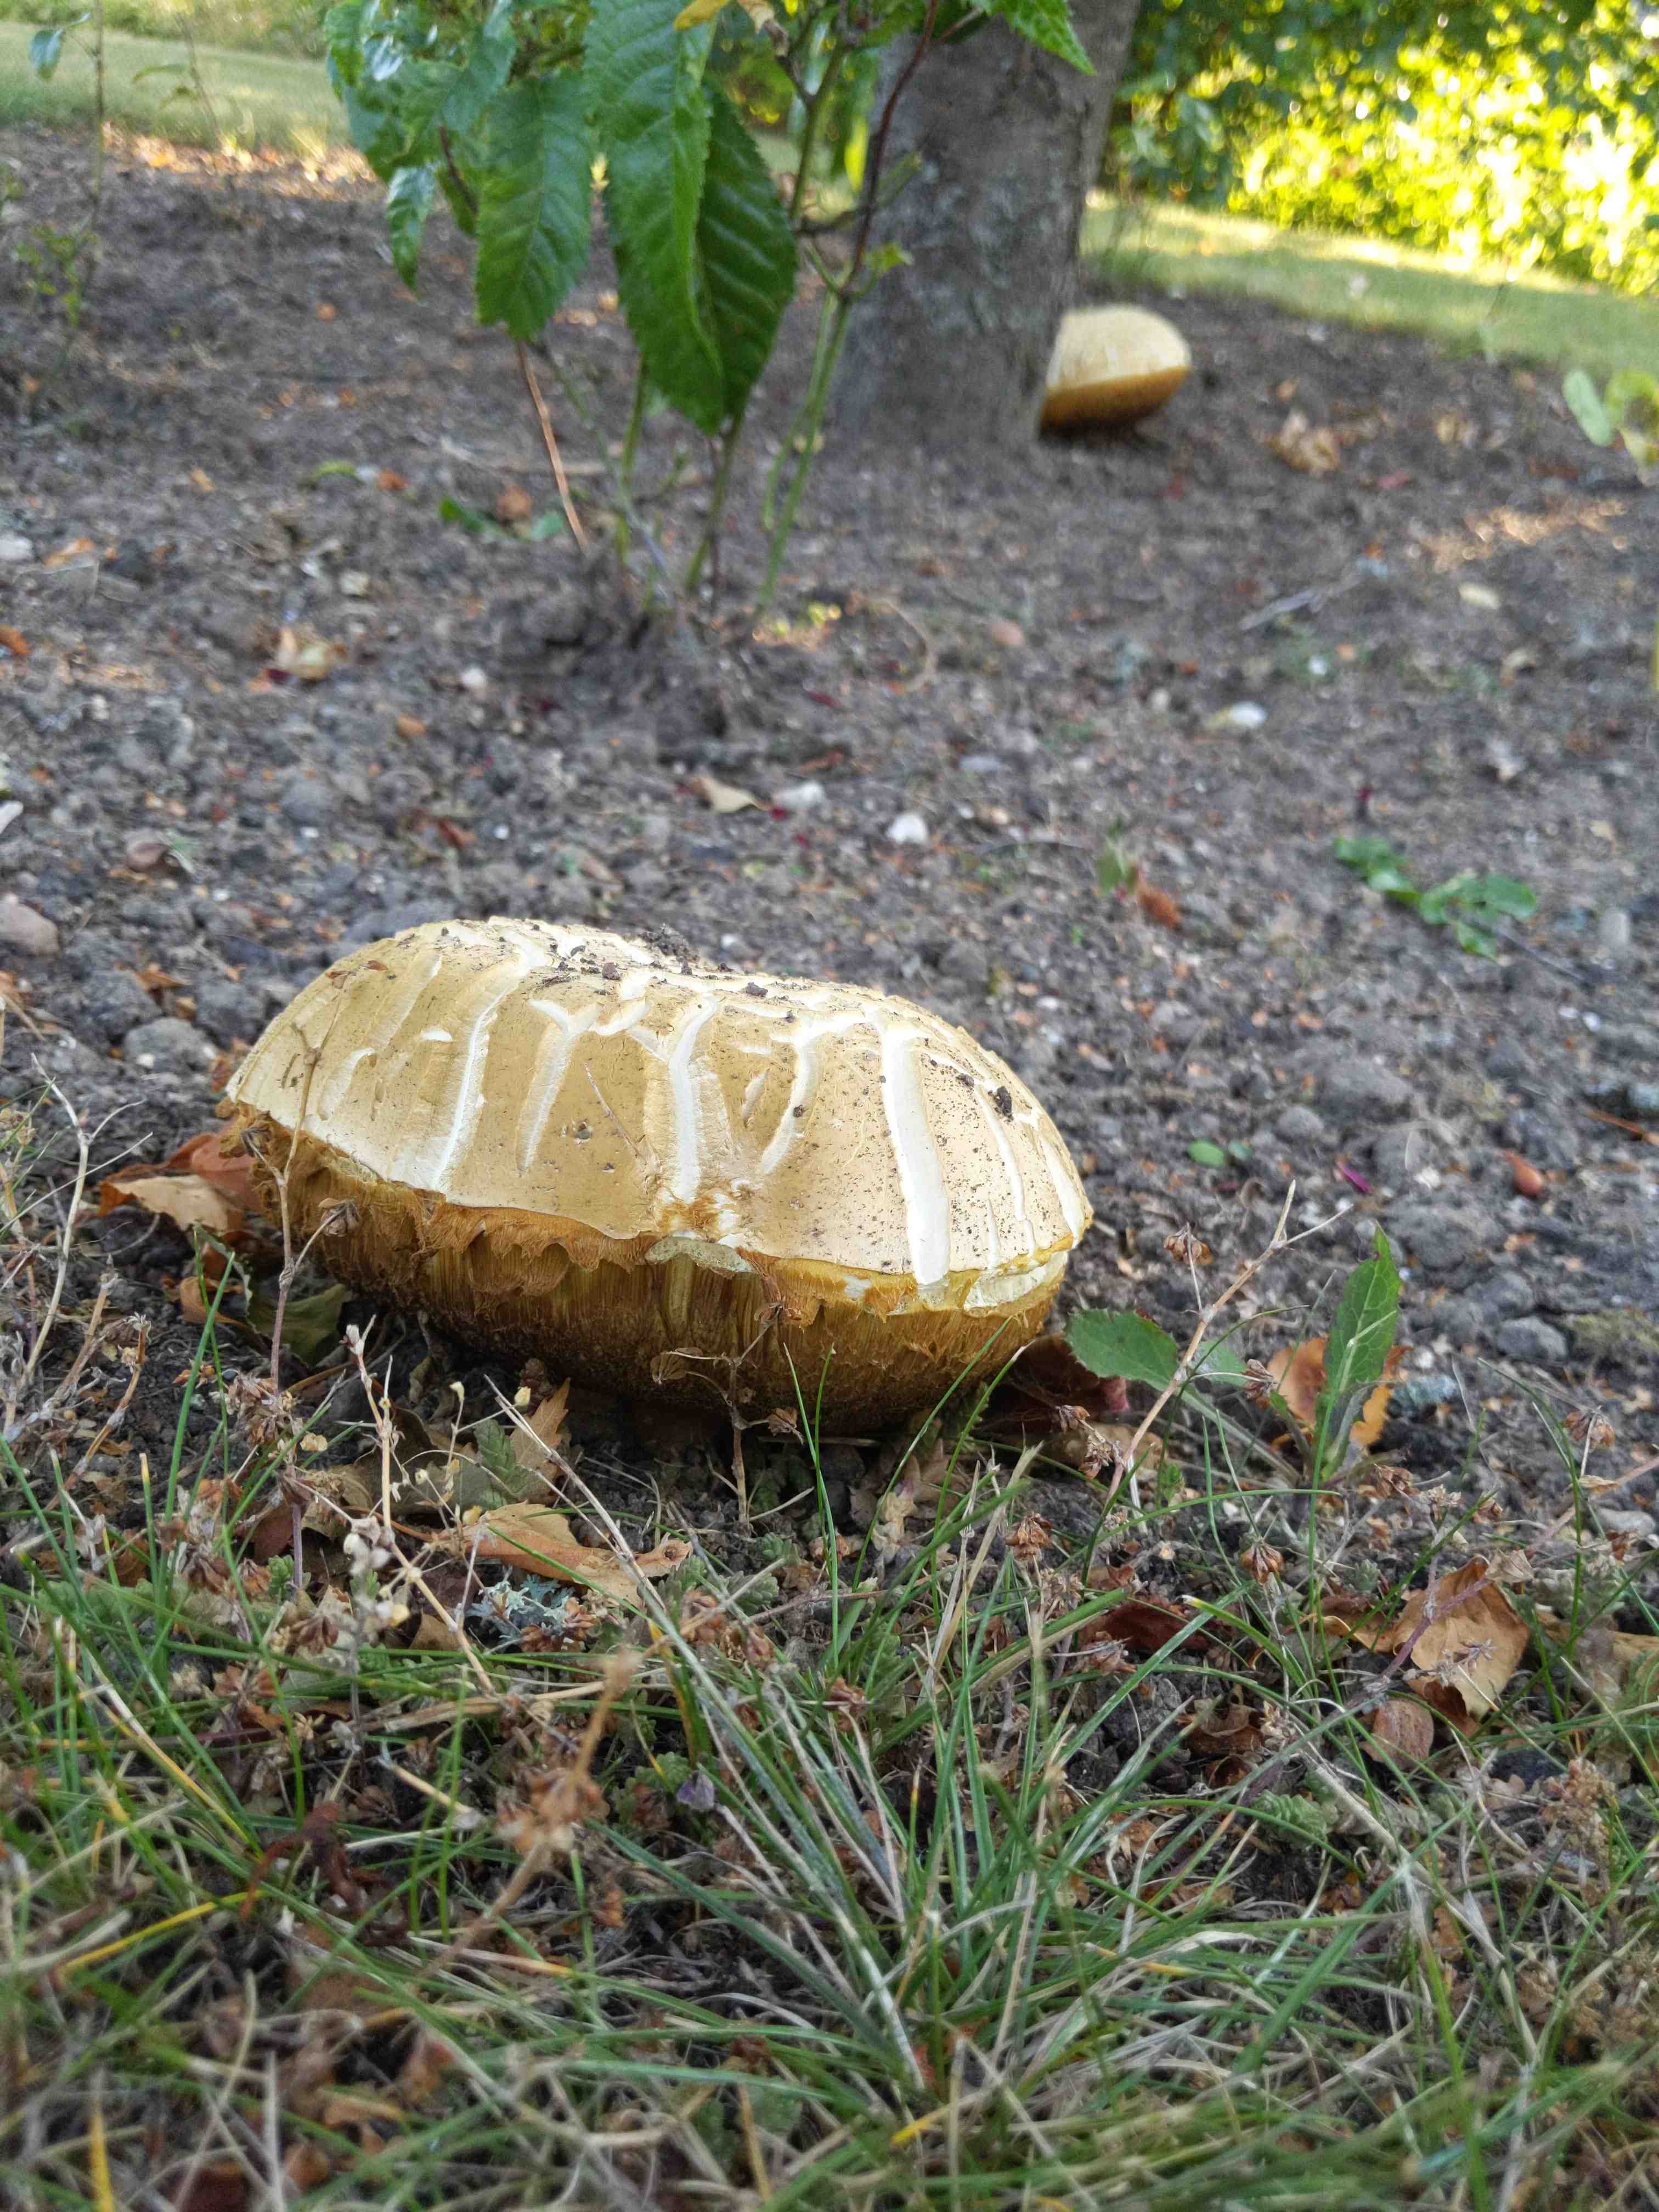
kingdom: Fungi
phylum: Basidiomycota
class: Agaricomycetes
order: Boletales
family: Boletaceae
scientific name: Boletaceae
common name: rørhatfamilien
